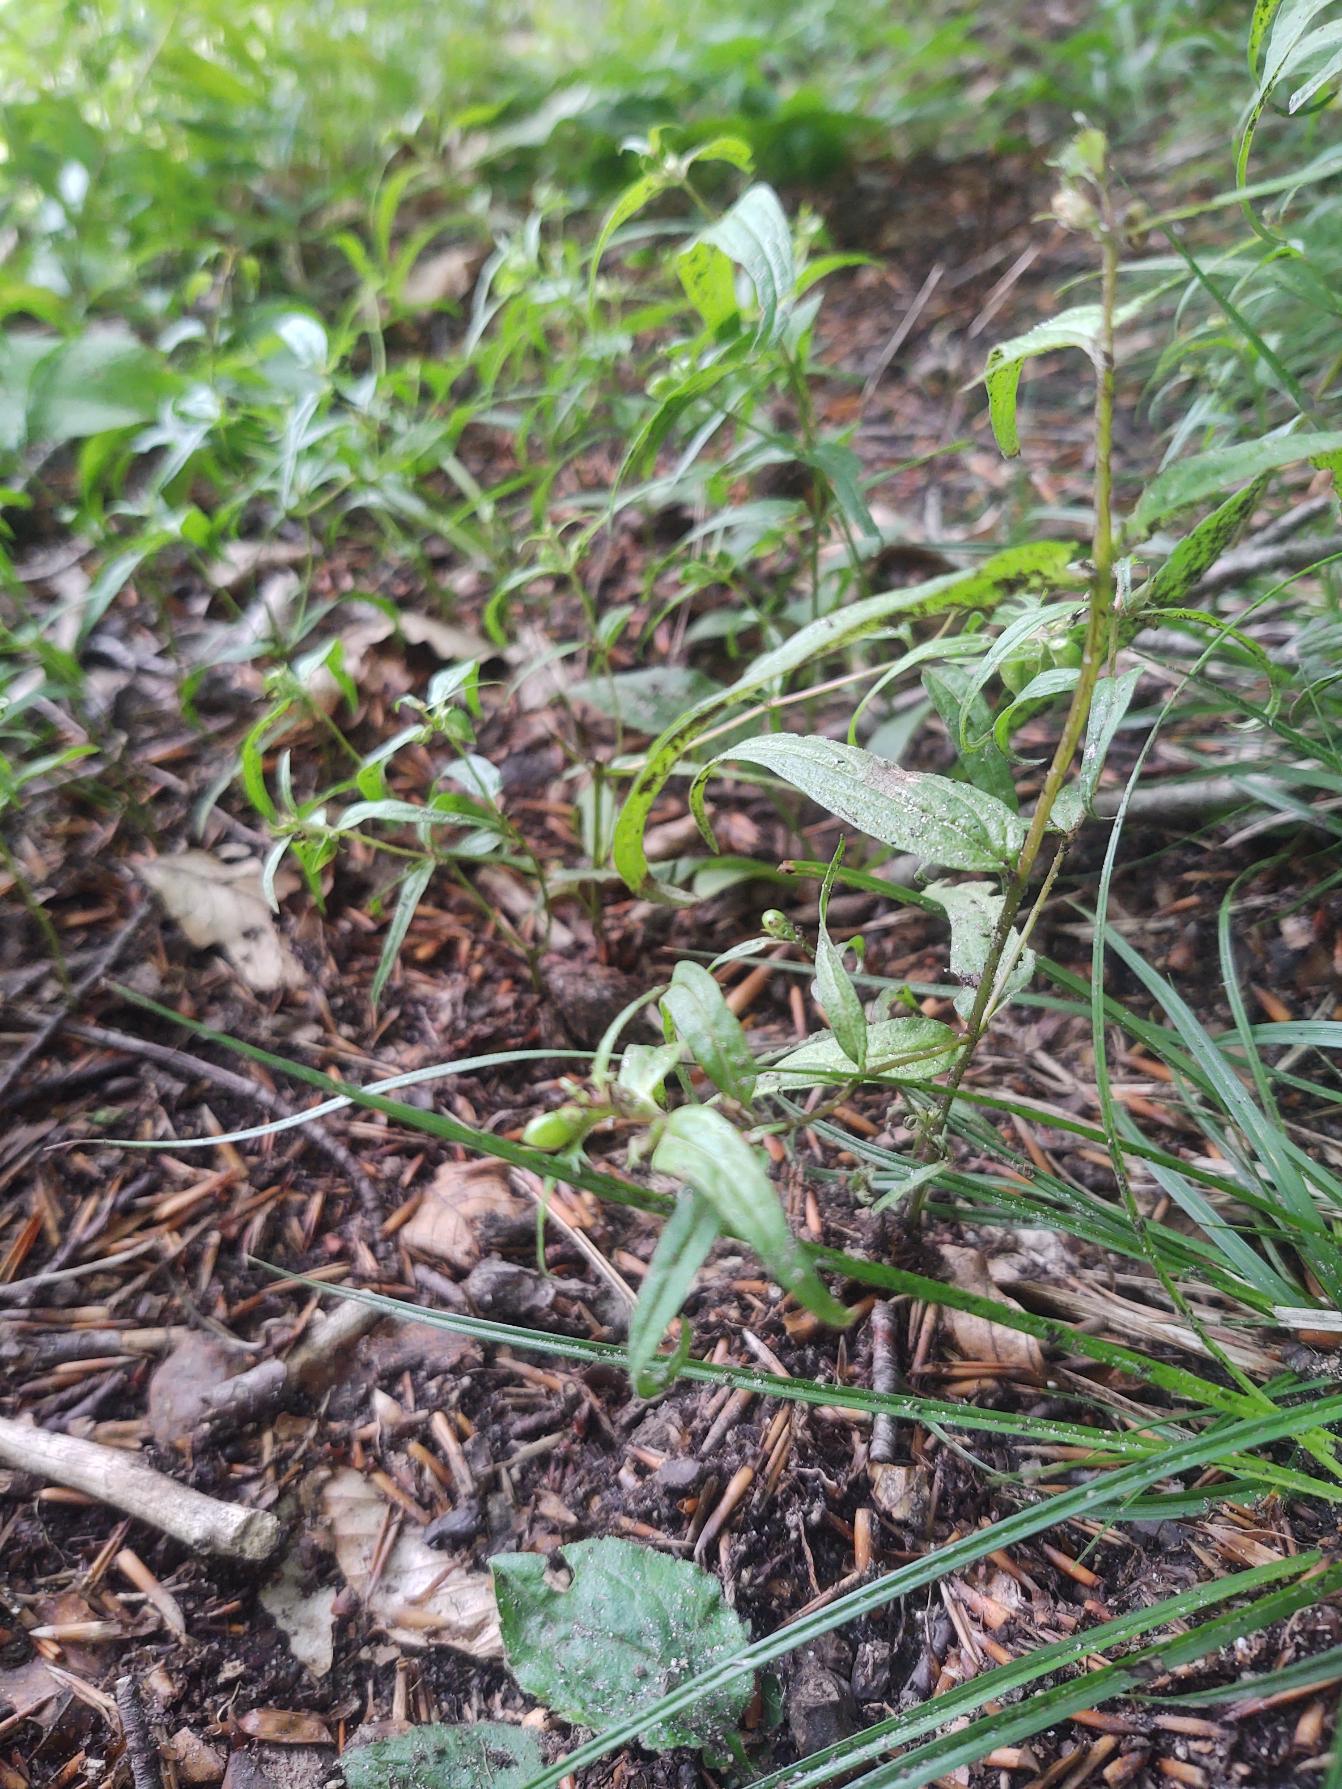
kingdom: Plantae
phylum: Tracheophyta
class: Magnoliopsida
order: Lamiales
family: Orobanchaceae
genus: Melampyrum
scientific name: Melampyrum pratense
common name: Almindelig kohvede
